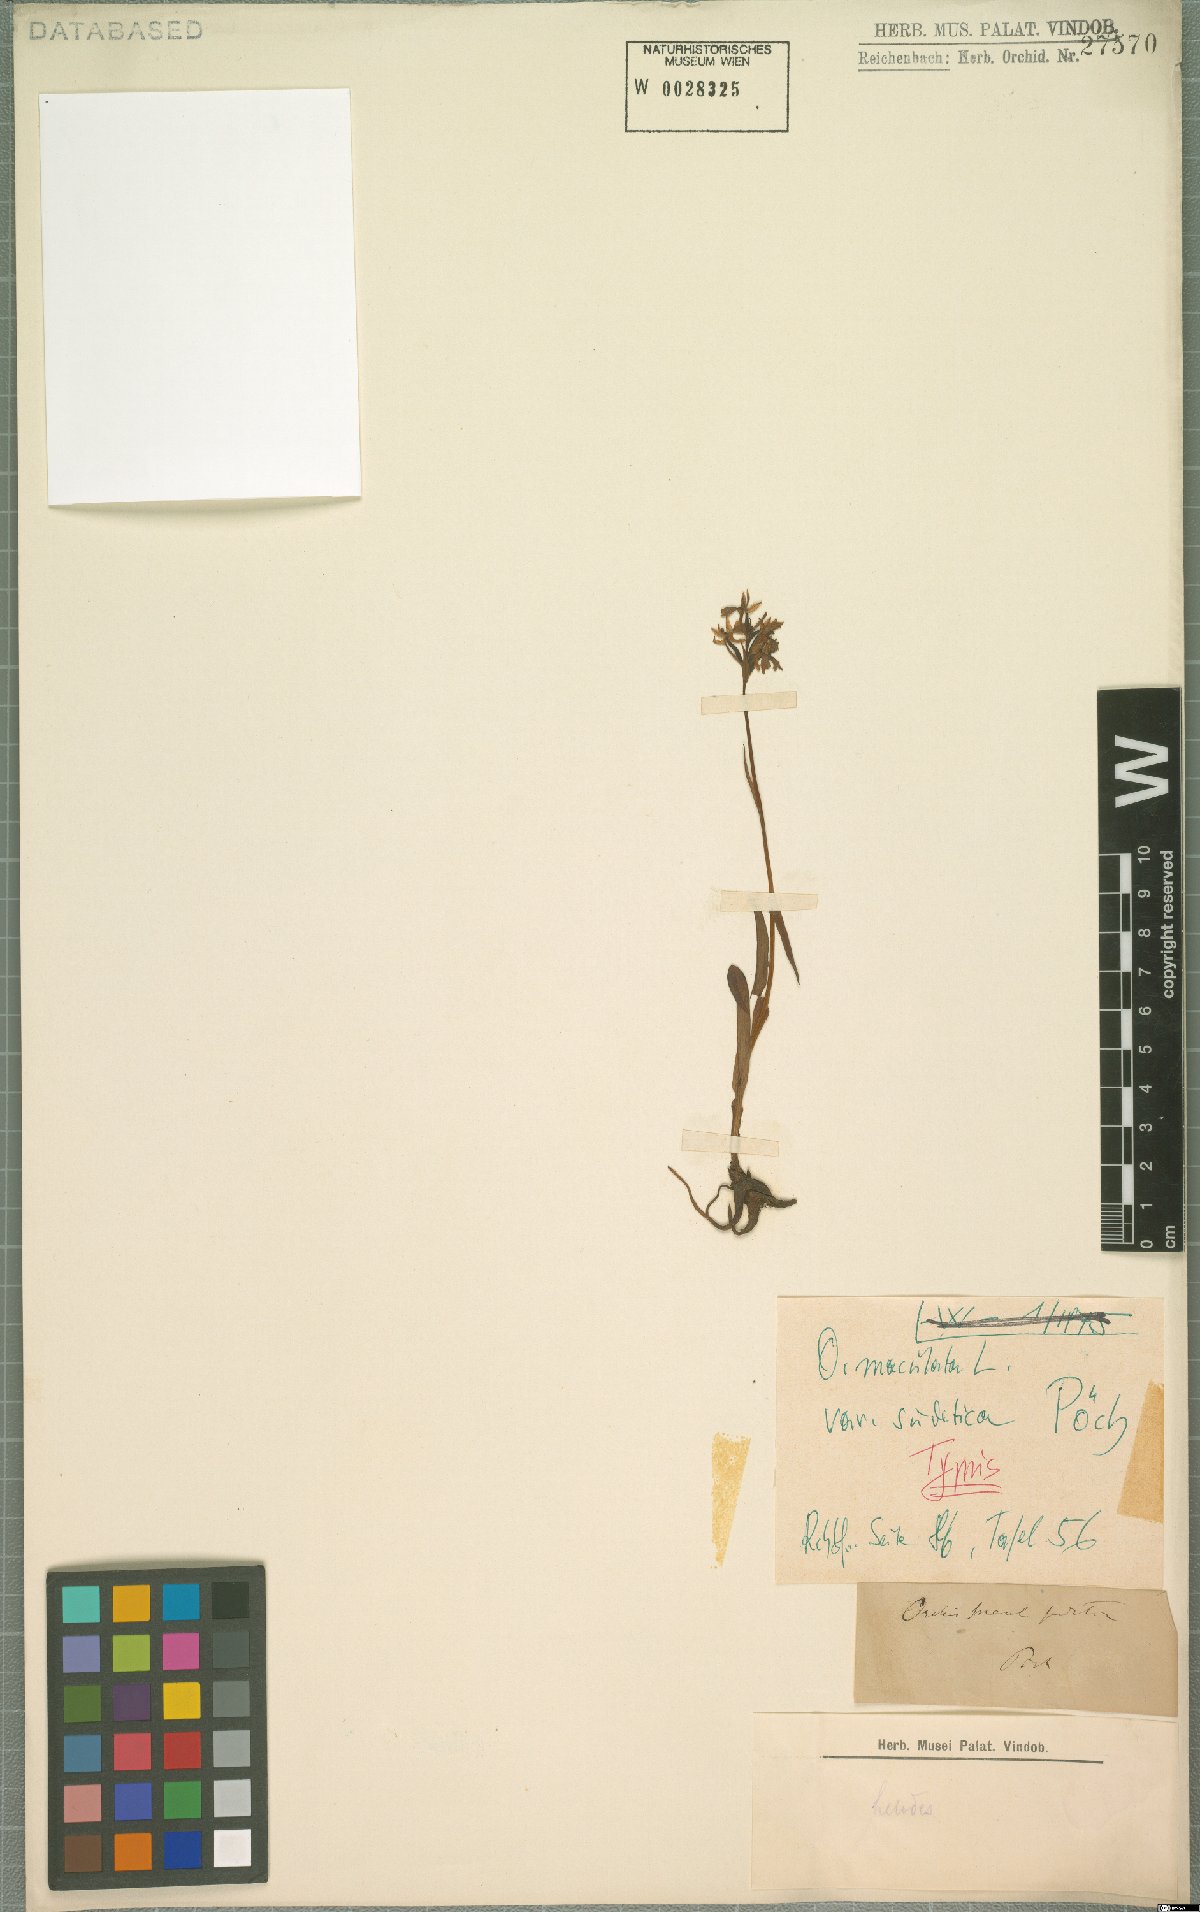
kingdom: Plantae
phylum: Tracheophyta
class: Liliopsida
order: Asparagales
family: Orchidaceae
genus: Dactylorhiza
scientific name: Dactylorhiza maculata
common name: Heath spotted-orchid
